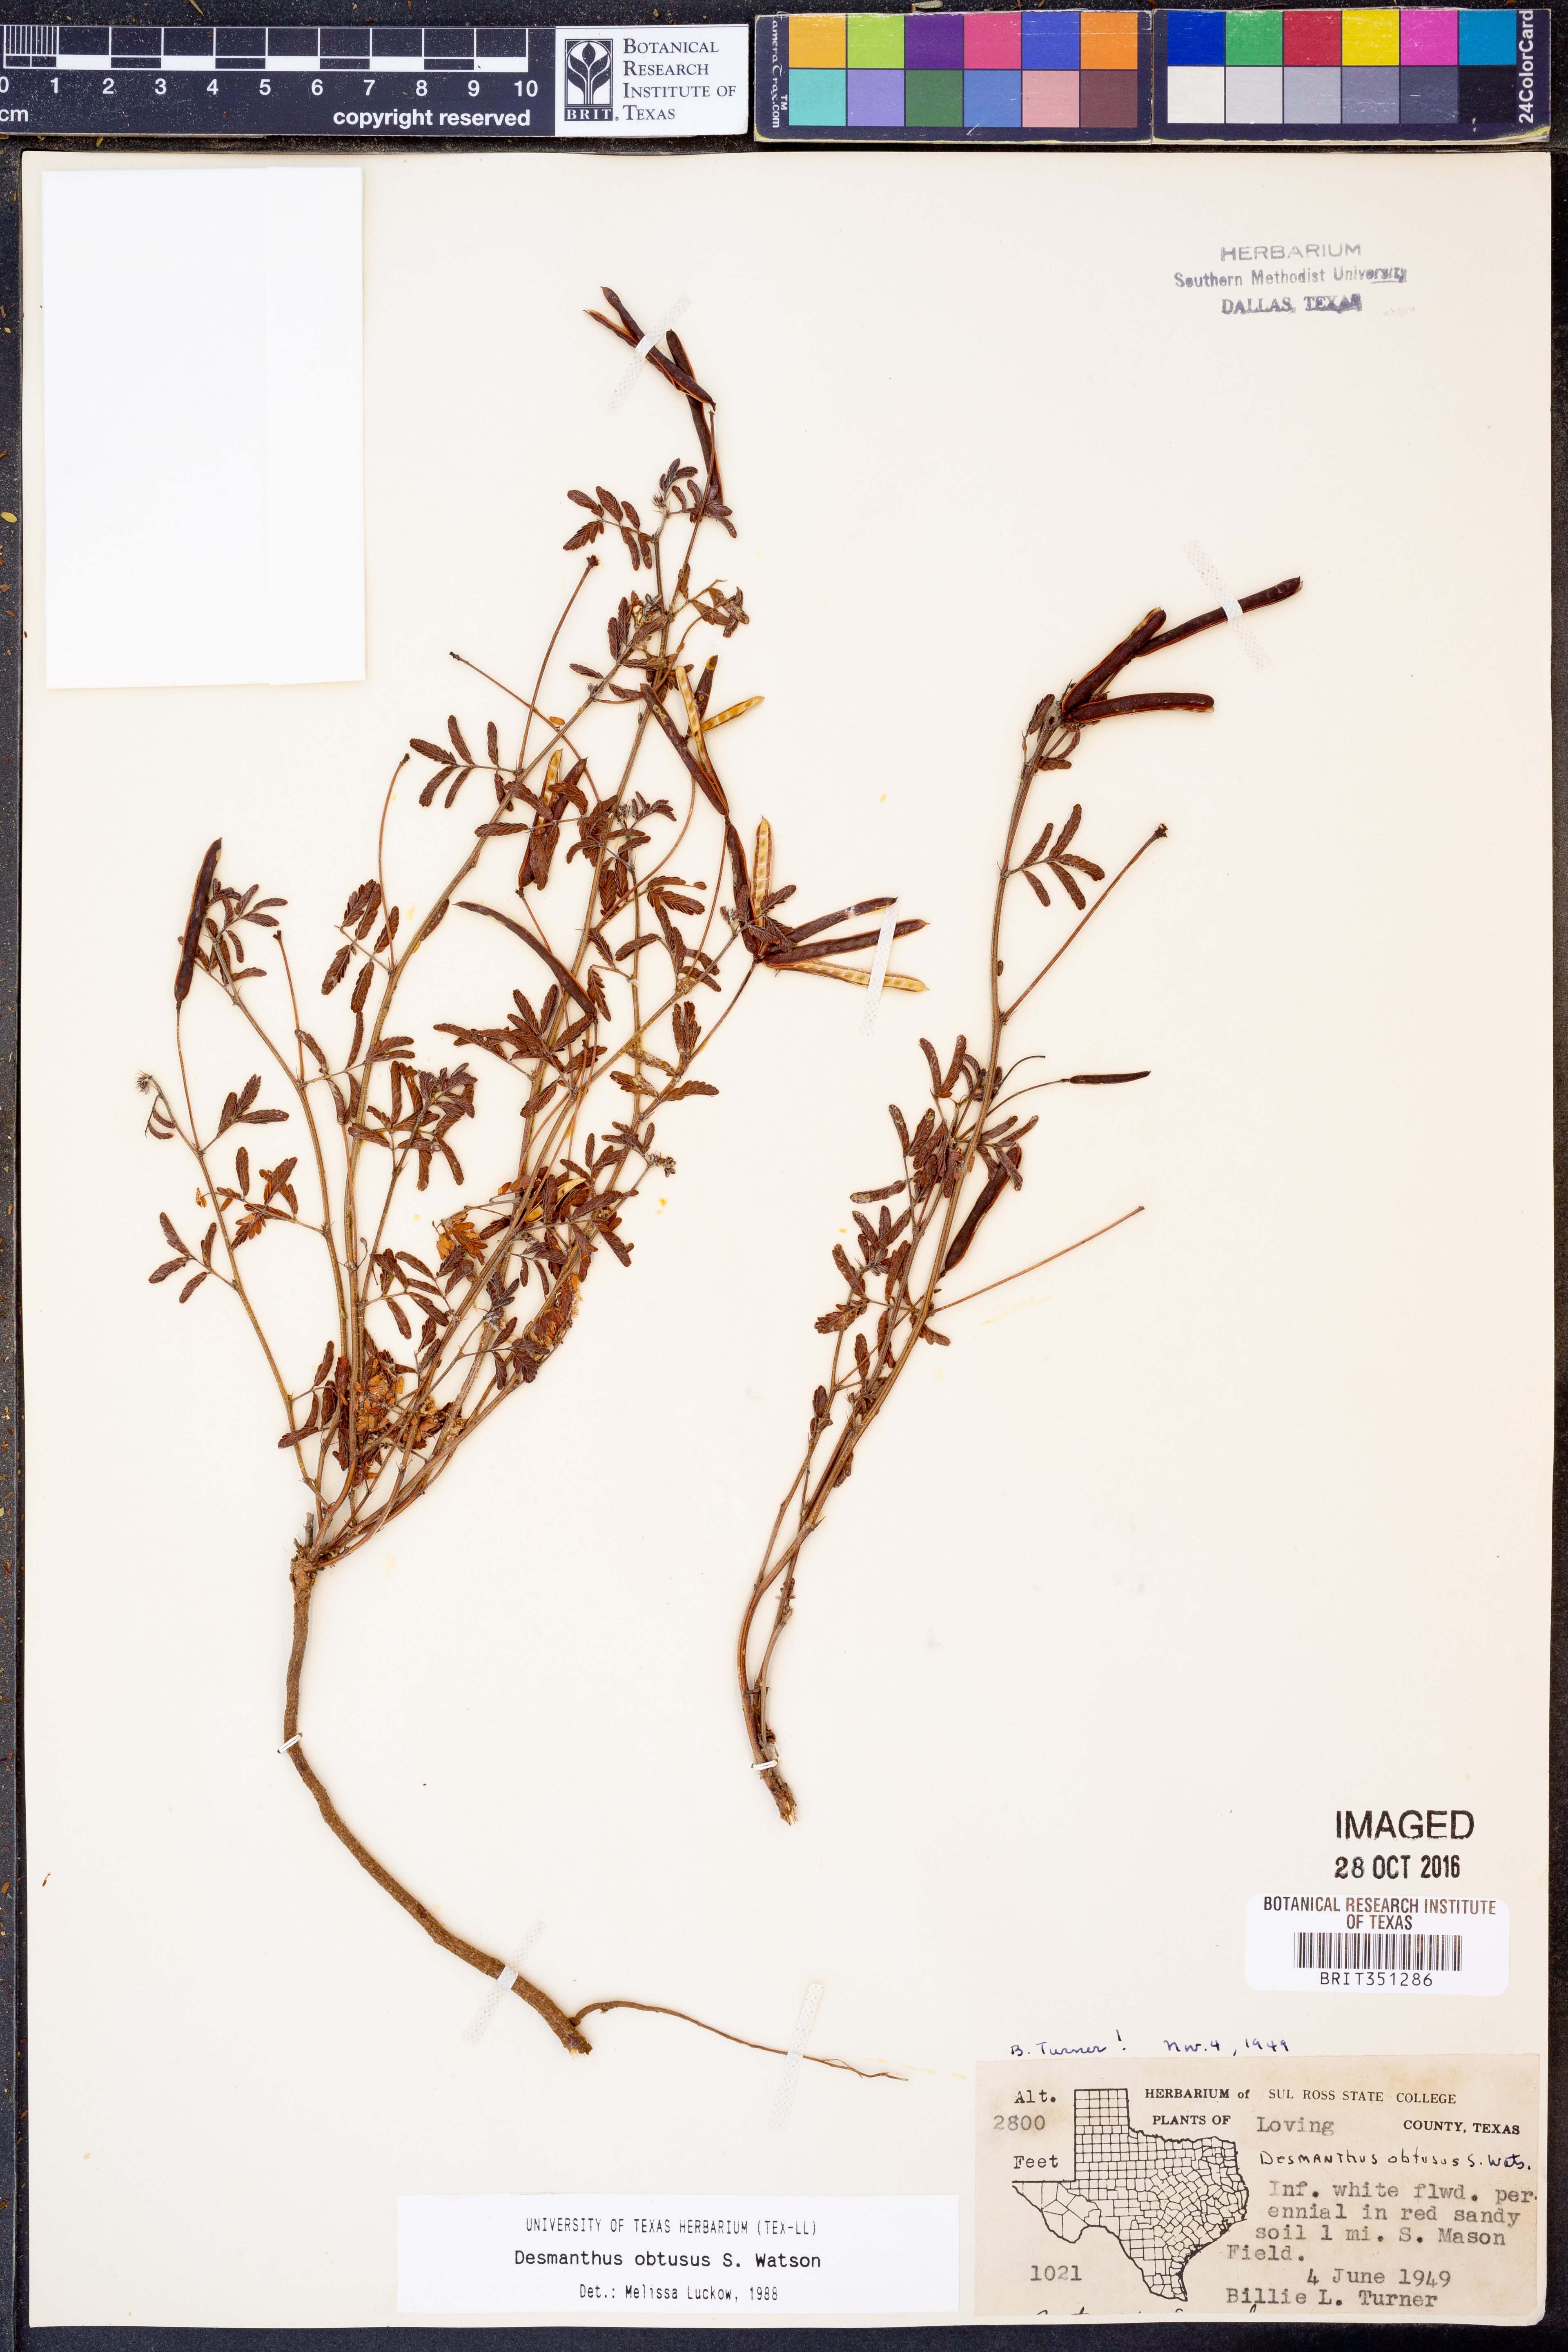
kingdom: Plantae
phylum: Tracheophyta
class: Magnoliopsida
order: Fabales
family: Fabaceae
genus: Desmanthus
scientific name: Desmanthus obtusus
